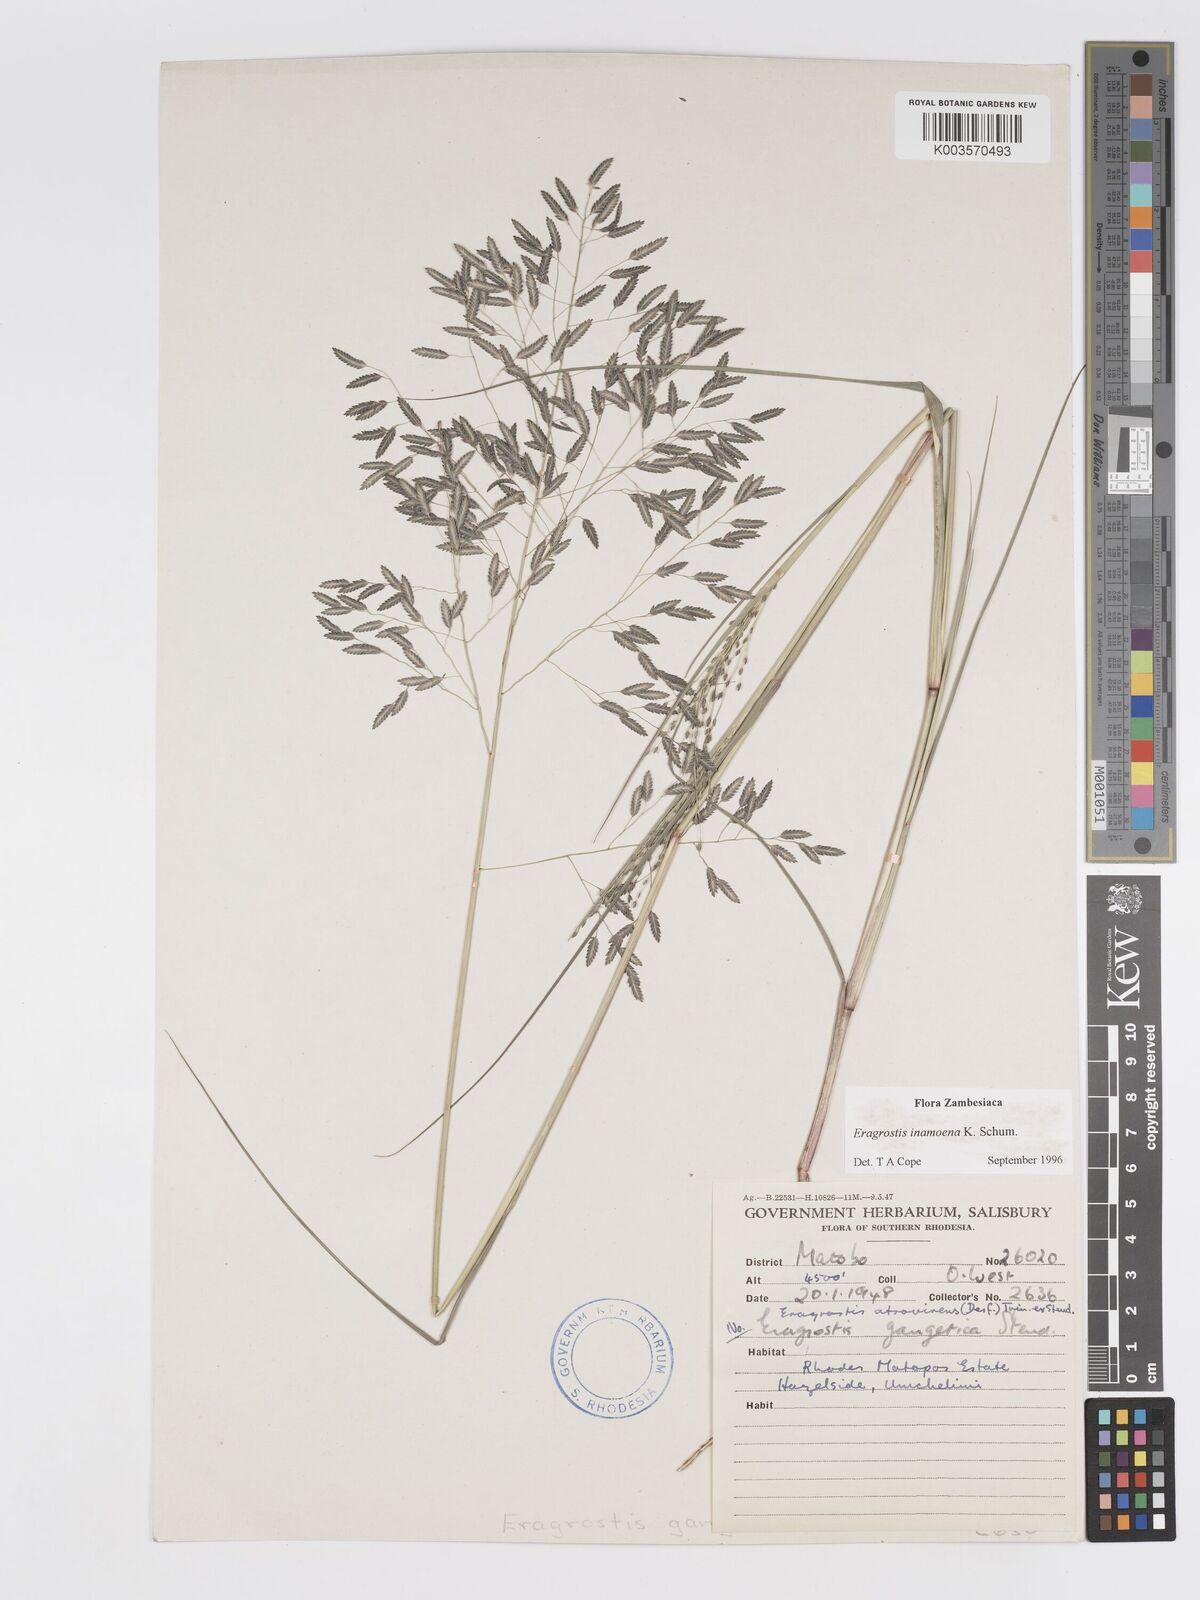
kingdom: Plantae
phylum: Tracheophyta
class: Liliopsida
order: Poales
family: Poaceae
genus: Eragrostis
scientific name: Eragrostis inamoena
